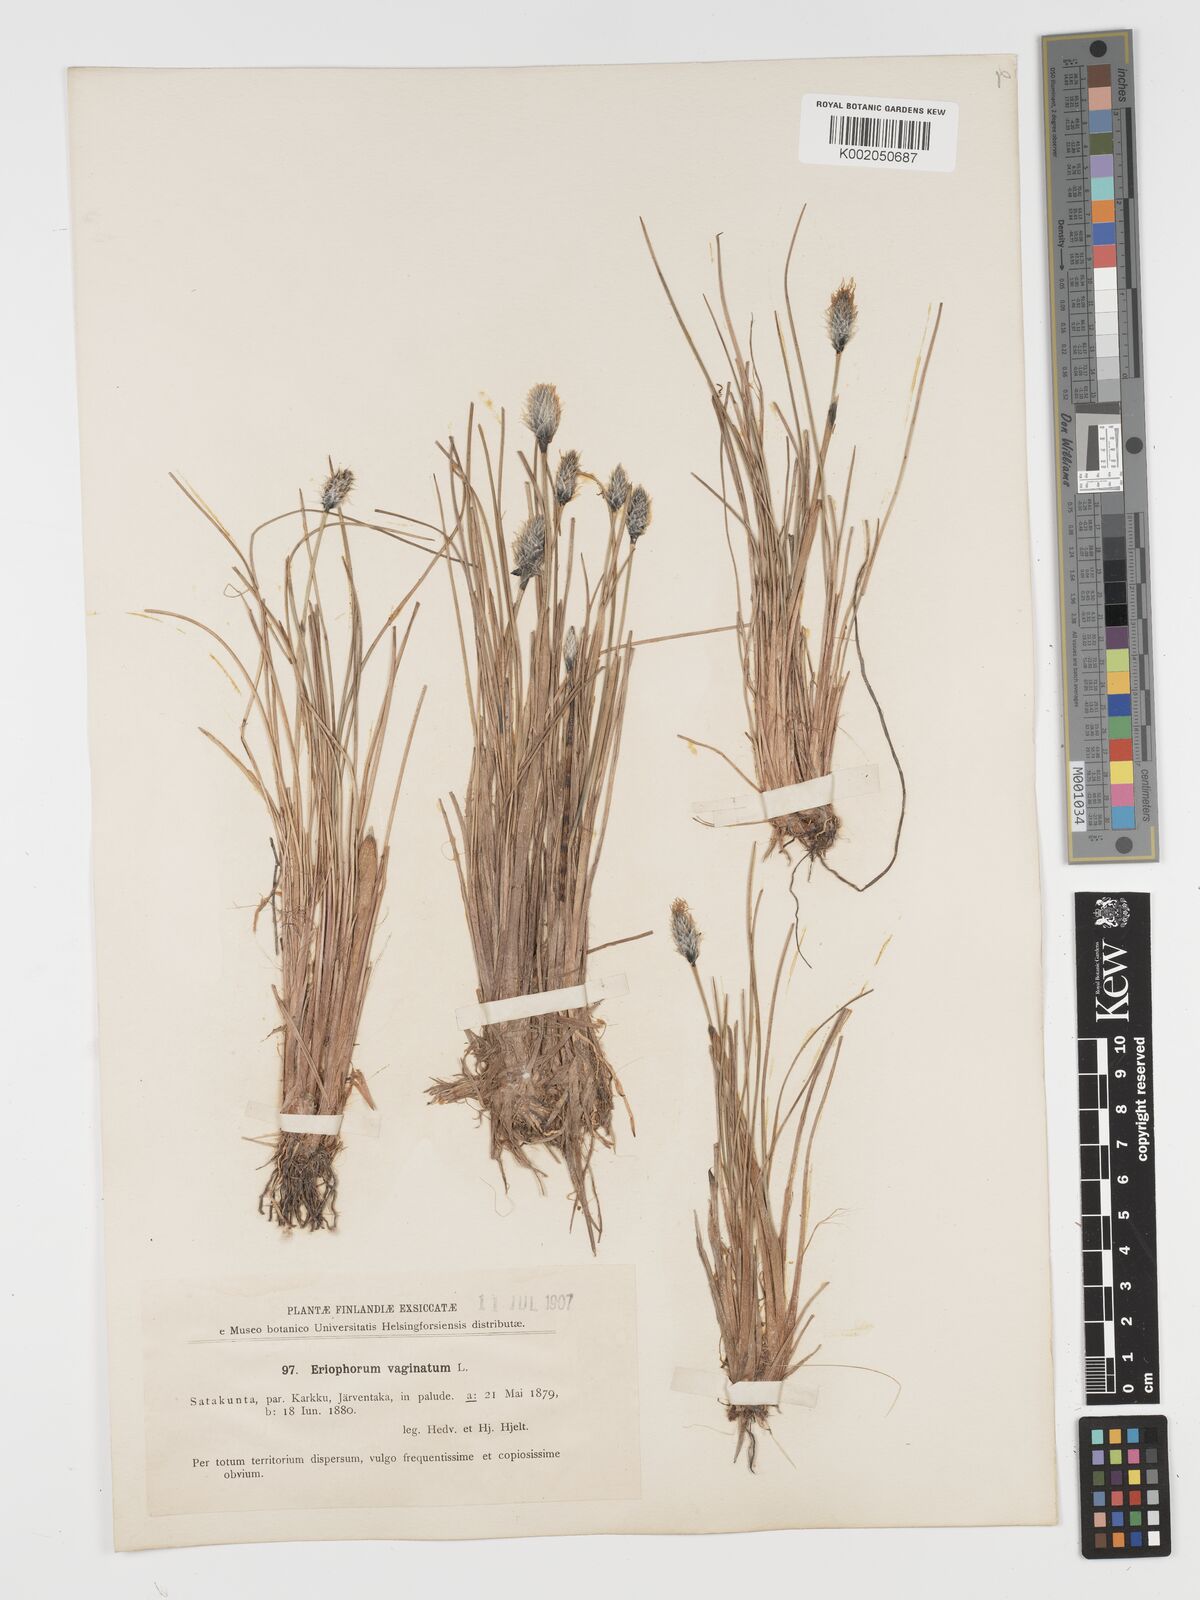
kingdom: Plantae
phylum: Tracheophyta
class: Liliopsida
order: Poales
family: Cyperaceae
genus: Eriophorum
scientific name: Eriophorum vaginatum
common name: Hare's-tail cottongrass
